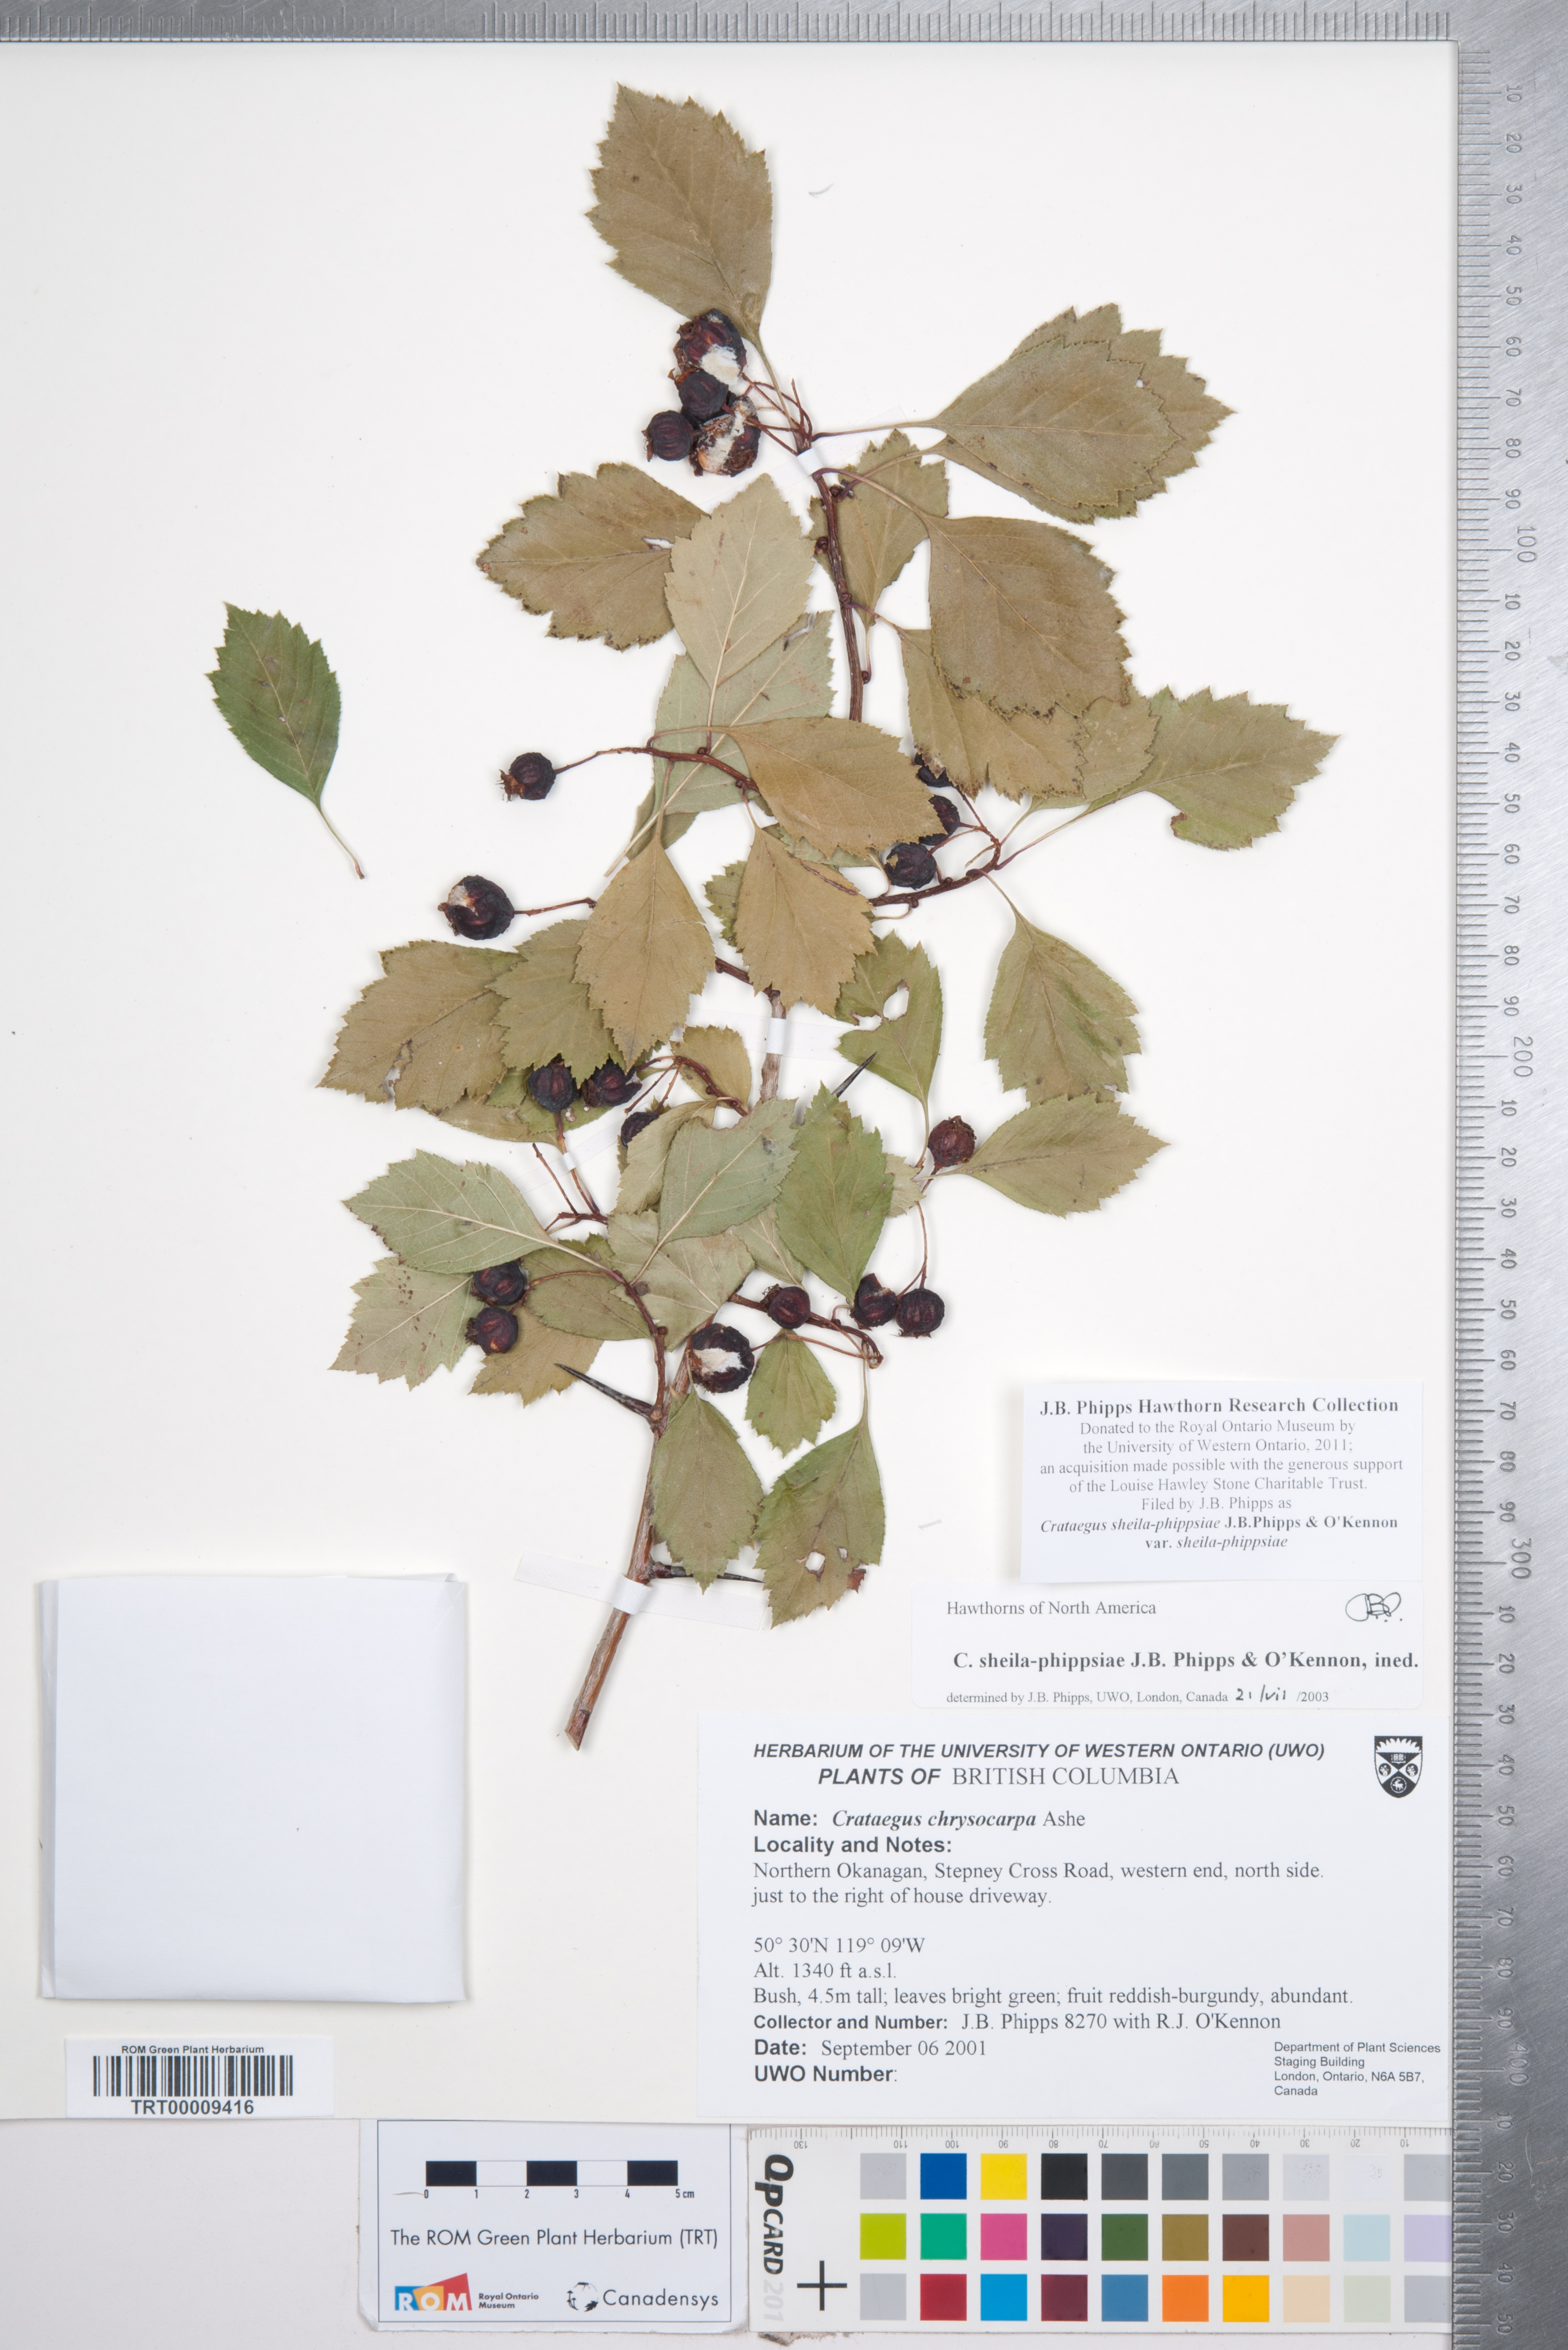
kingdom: Plantae
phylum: Tracheophyta
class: Magnoliopsida
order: Rosales
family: Rosaceae
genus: Crataegus
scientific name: Crataegus sheila-phippsiae
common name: Sheila phipps' hawthorn
